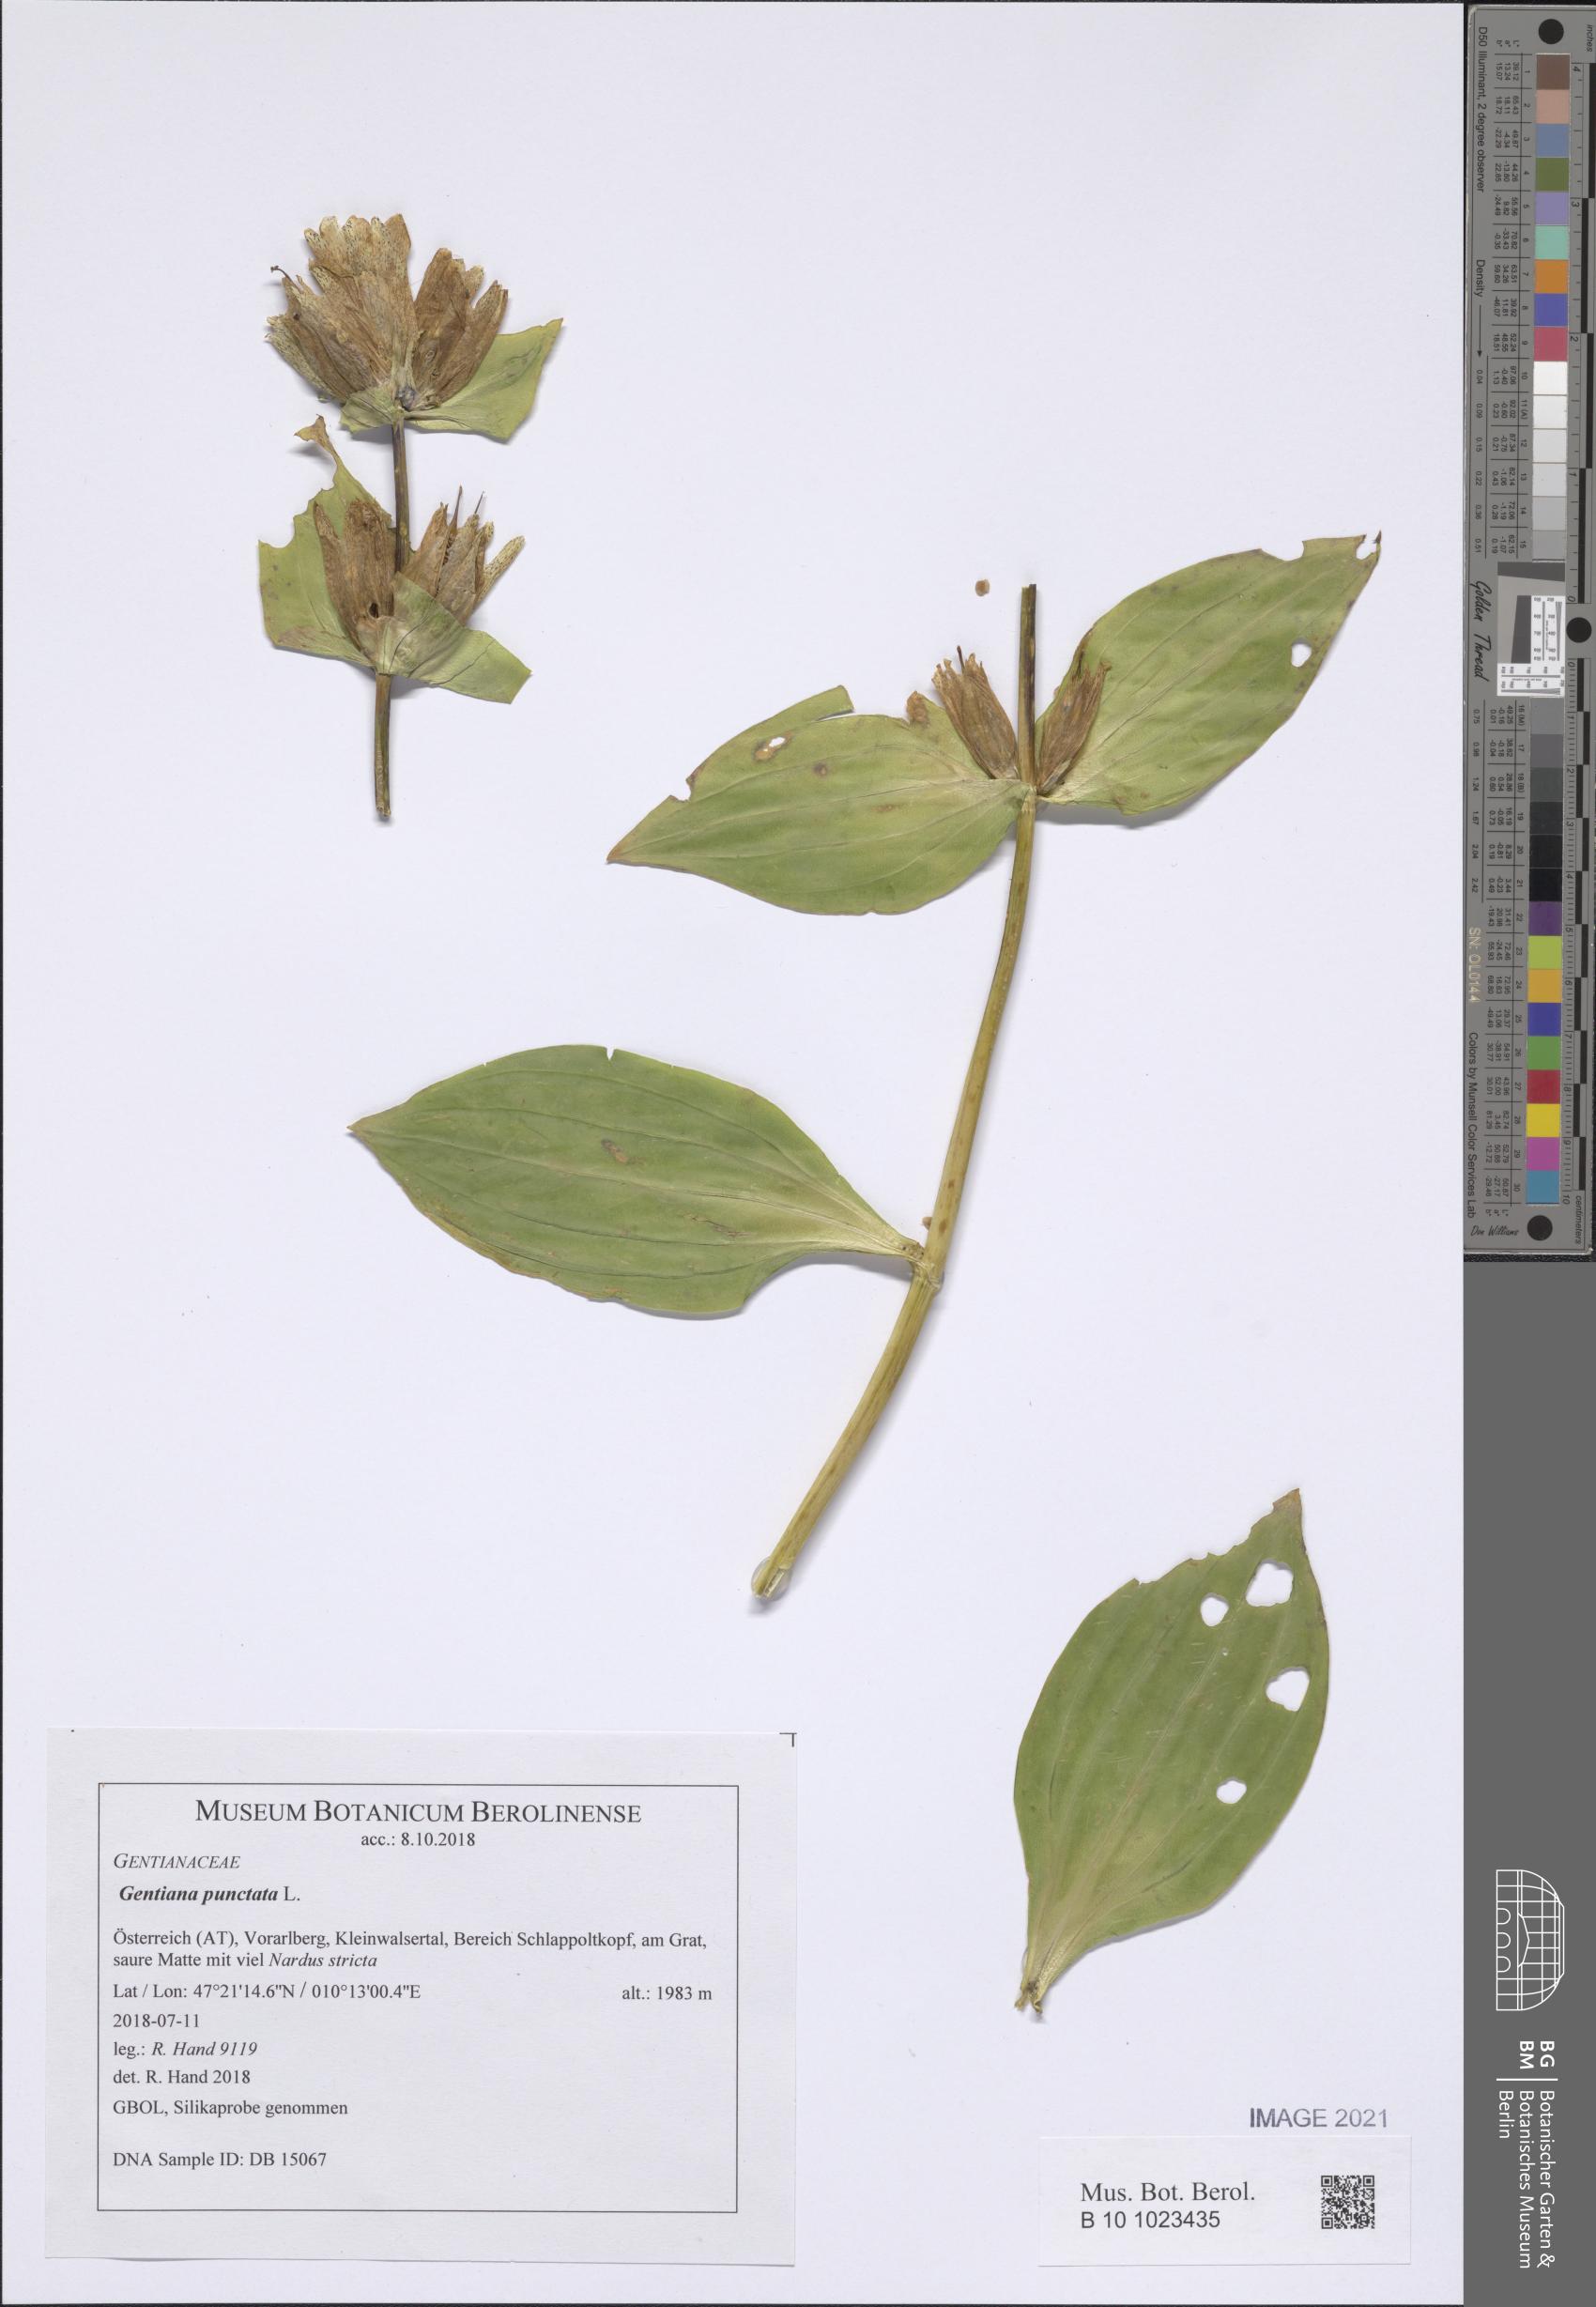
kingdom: Plantae
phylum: Tracheophyta
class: Magnoliopsida
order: Gentianales
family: Gentianaceae
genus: Gentiana
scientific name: Gentiana punctata
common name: Spotted gentian
